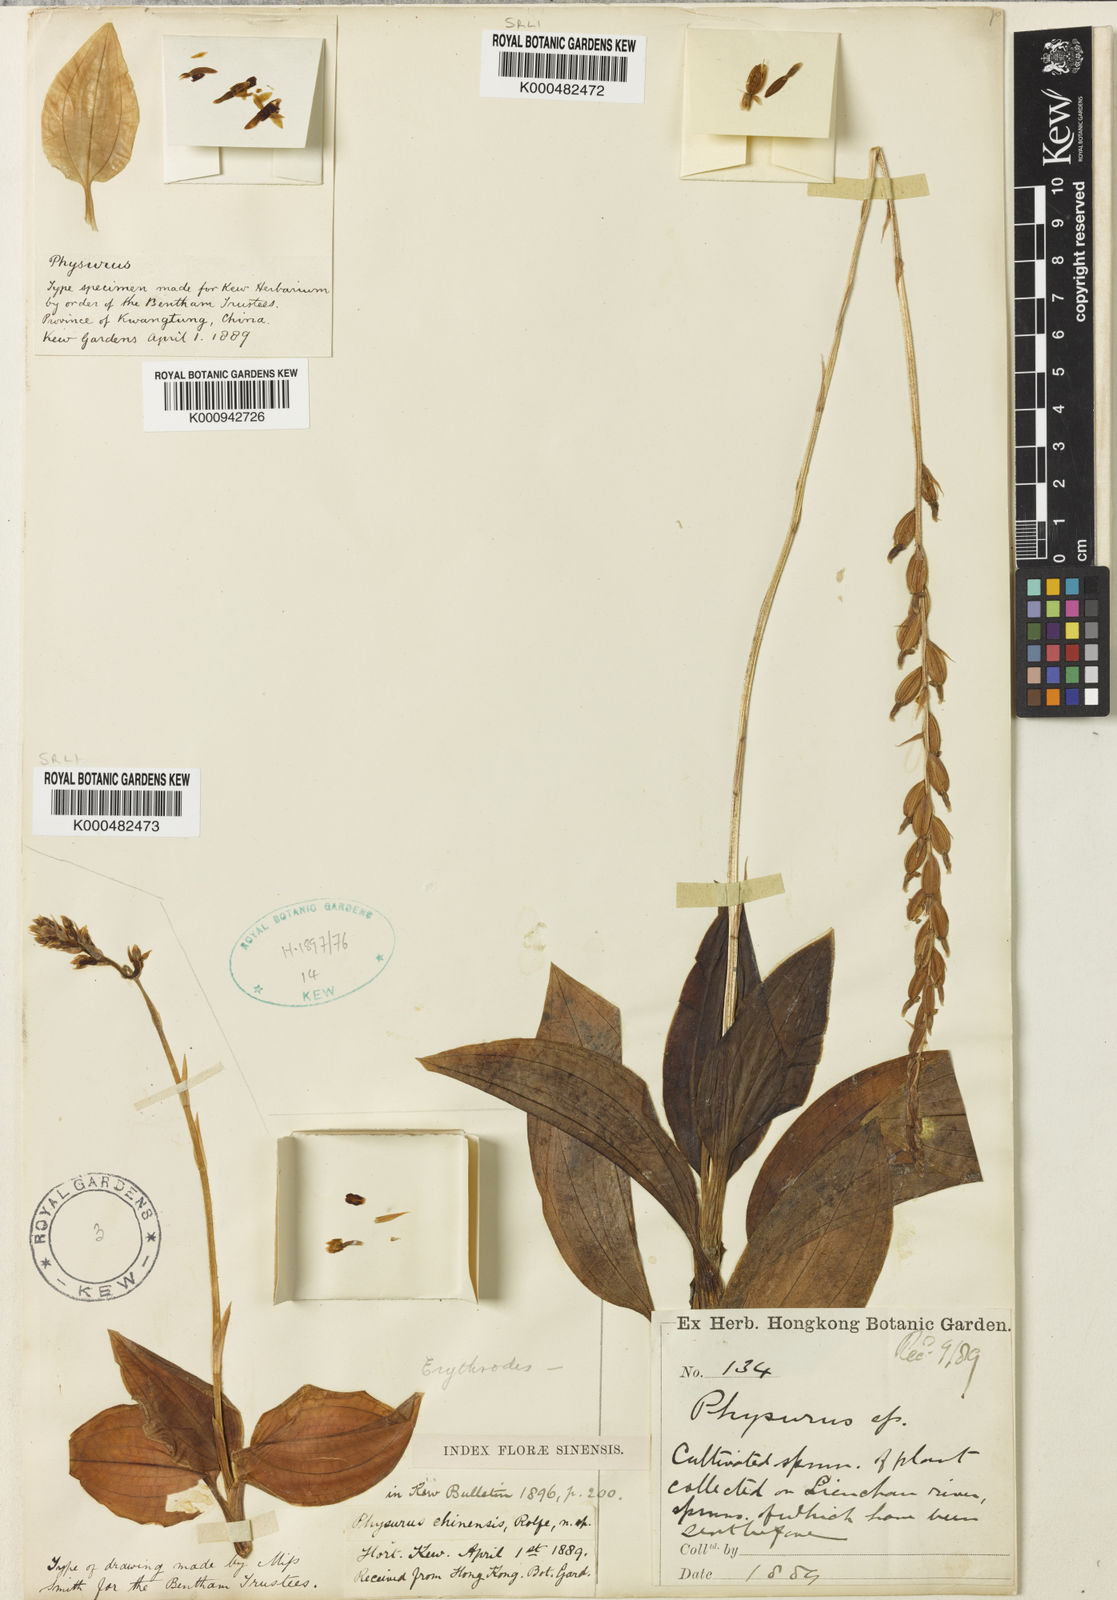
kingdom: Plantae
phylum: Tracheophyta
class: Liliopsida
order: Asparagales
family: Orchidaceae
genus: Erythrodes
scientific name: Erythrodes chinensis
